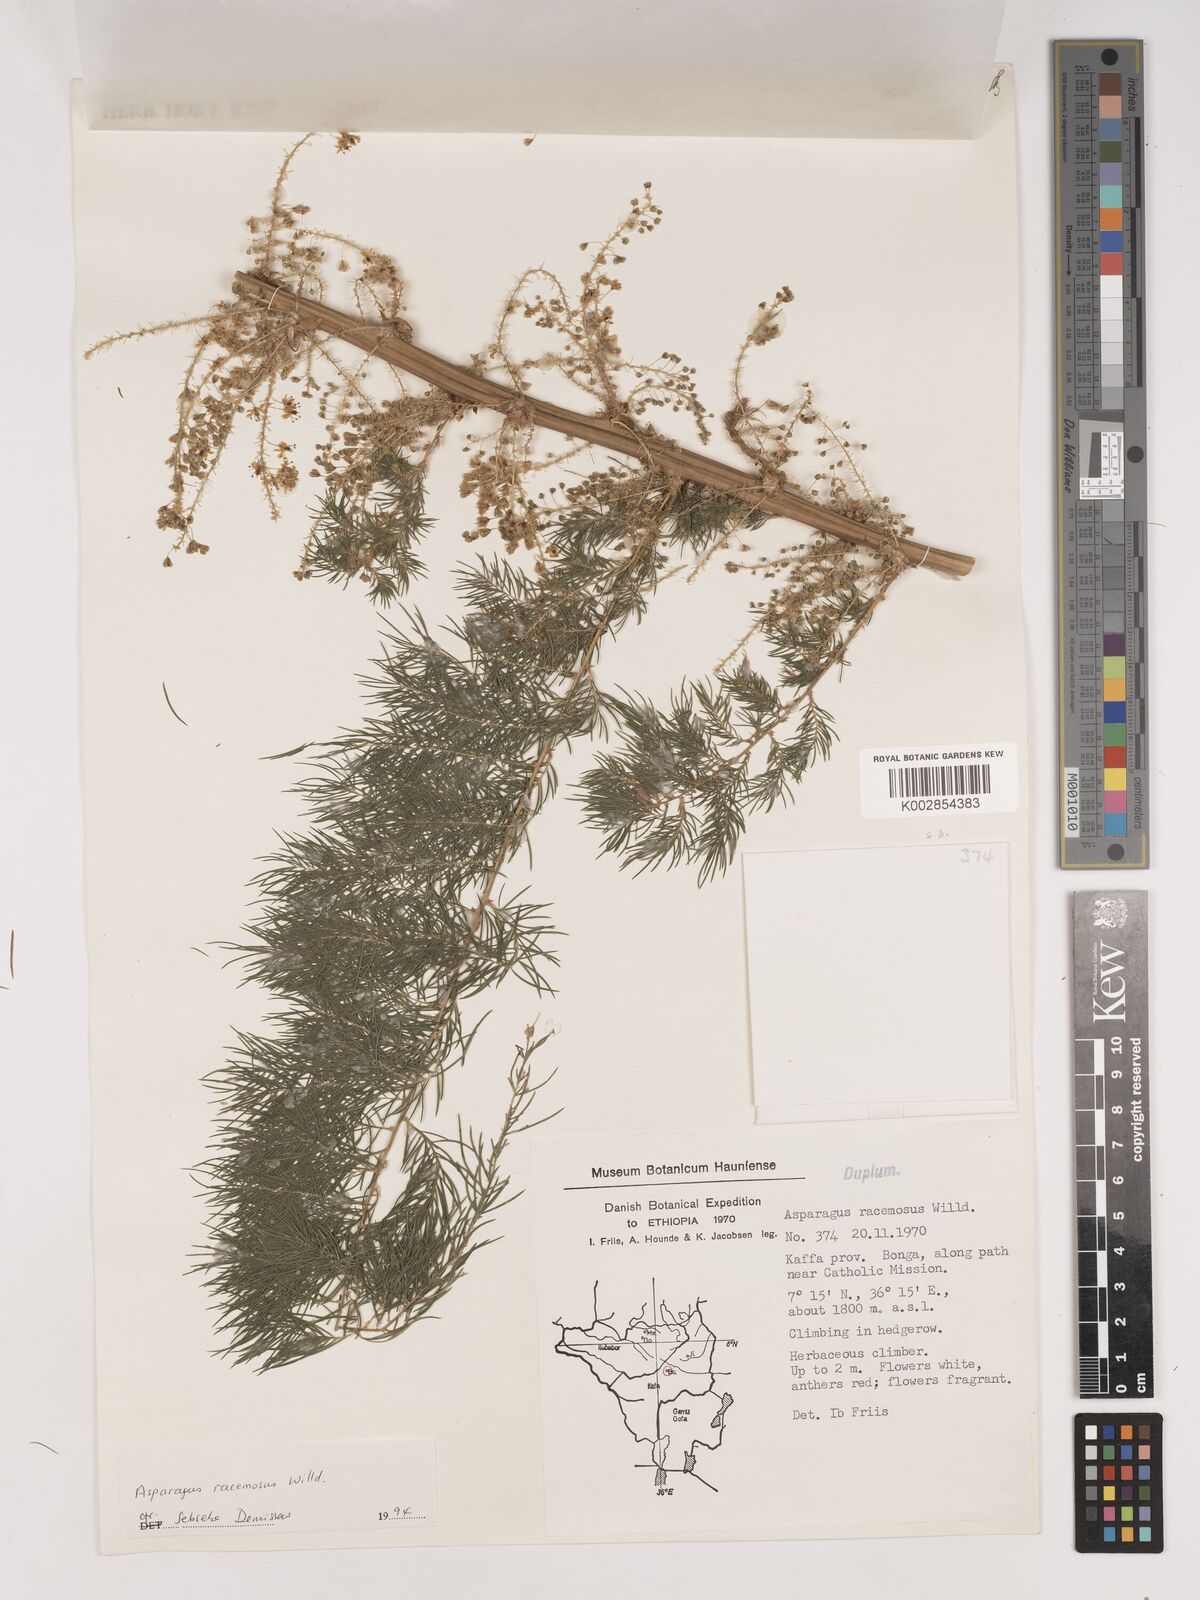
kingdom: Plantae
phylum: Tracheophyta
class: Liliopsida
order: Asparagales
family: Asparagaceae
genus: Asparagus
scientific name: Asparagus racemosus
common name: Asparagus-fern
